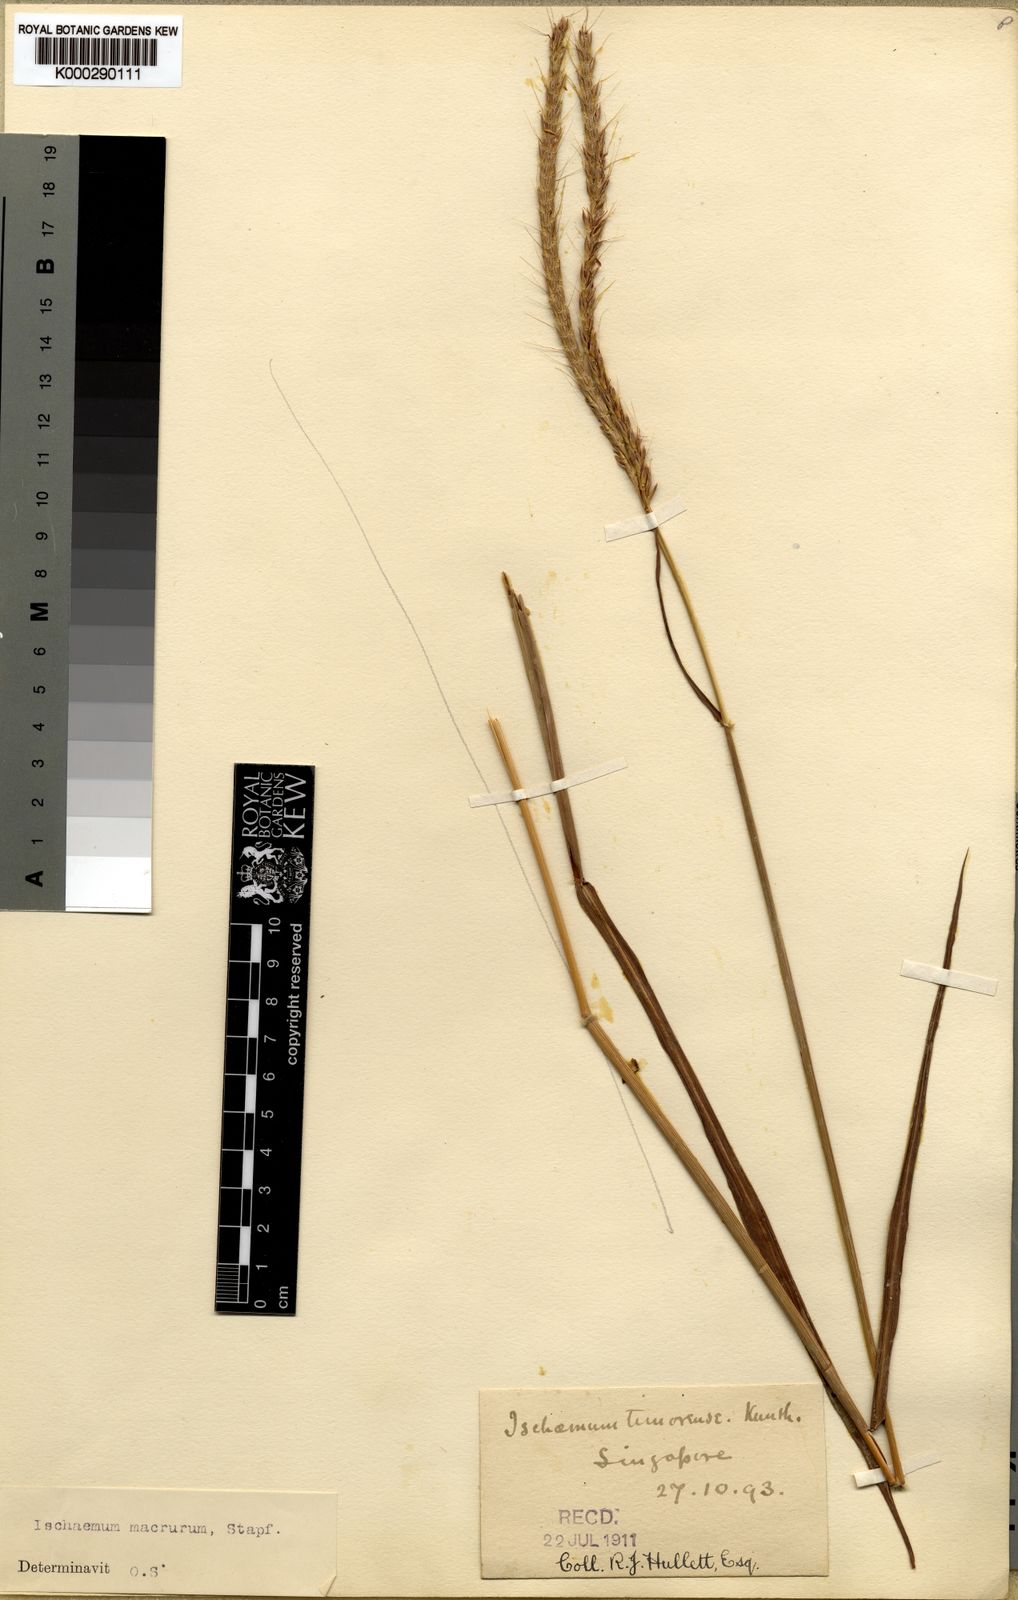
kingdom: Plantae
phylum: Tracheophyta
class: Liliopsida
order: Poales
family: Poaceae
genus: Ischaemum
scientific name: Ischaemum timorense
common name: Stalkleaf murainagrass
